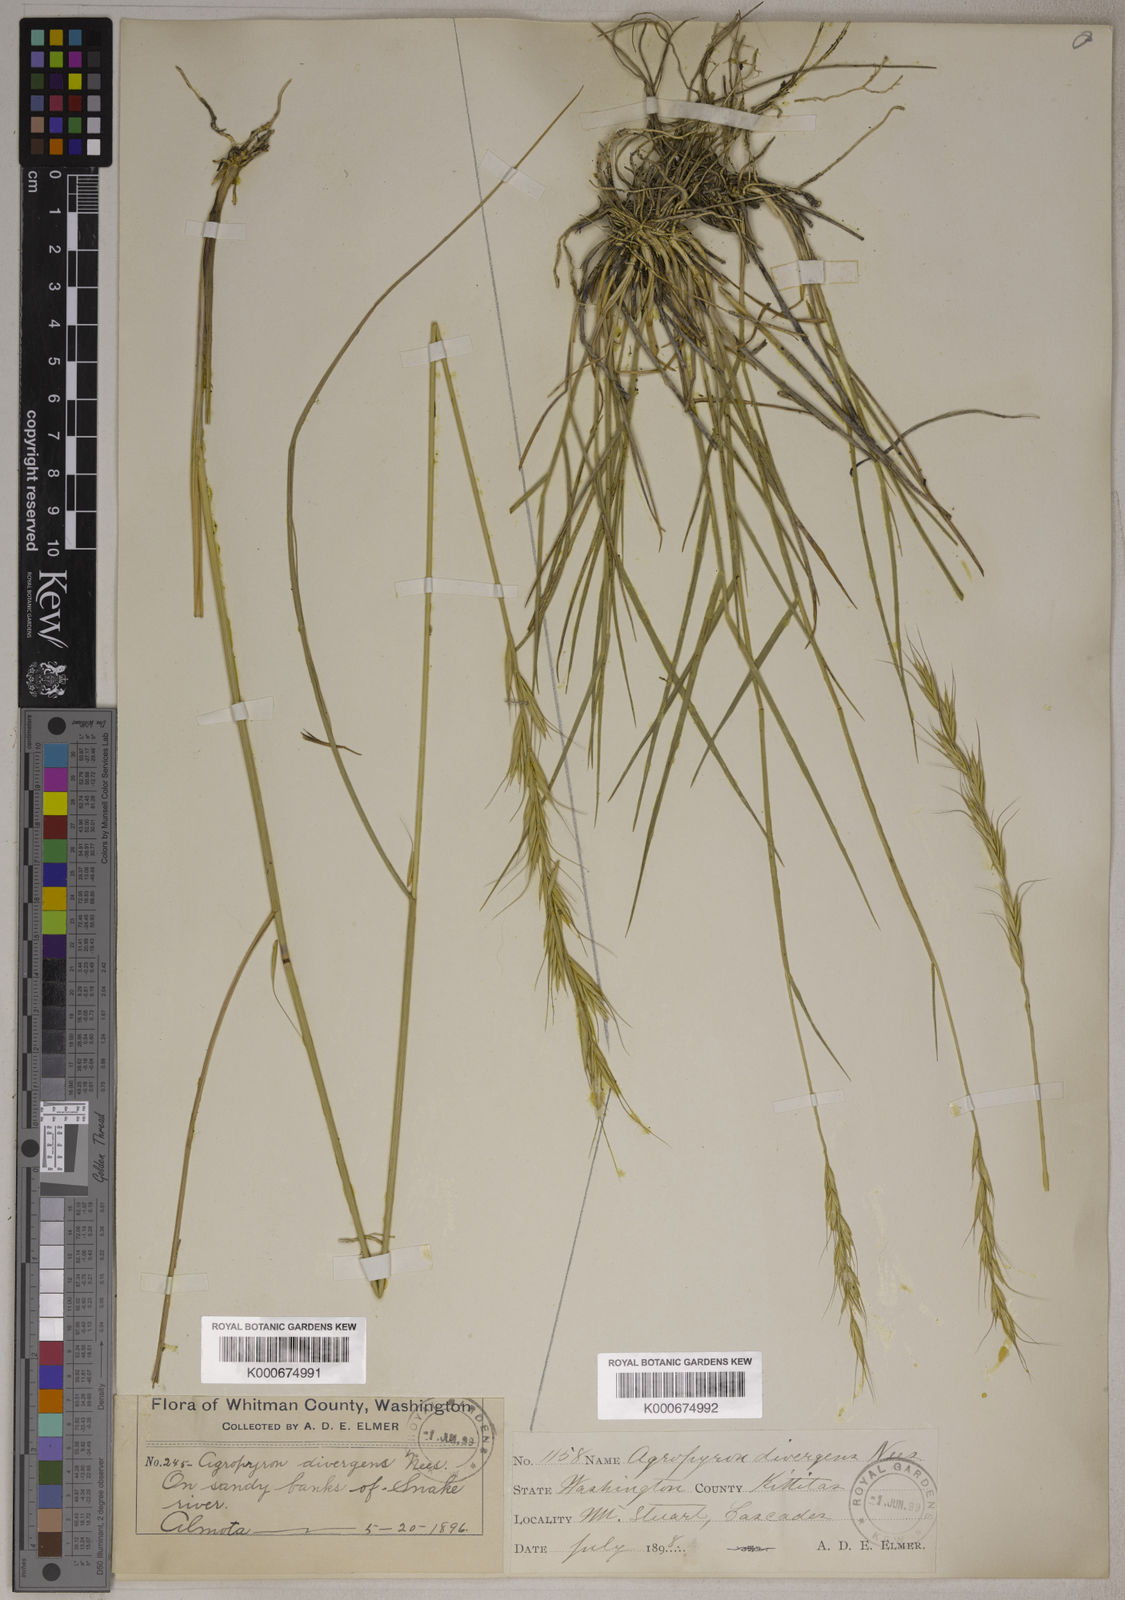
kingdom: Plantae
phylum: Tracheophyta
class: Liliopsida
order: Poales
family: Poaceae
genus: Pseudoroegneria
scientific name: Pseudoroegneria spicata
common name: Bluebunch wheatgrass
